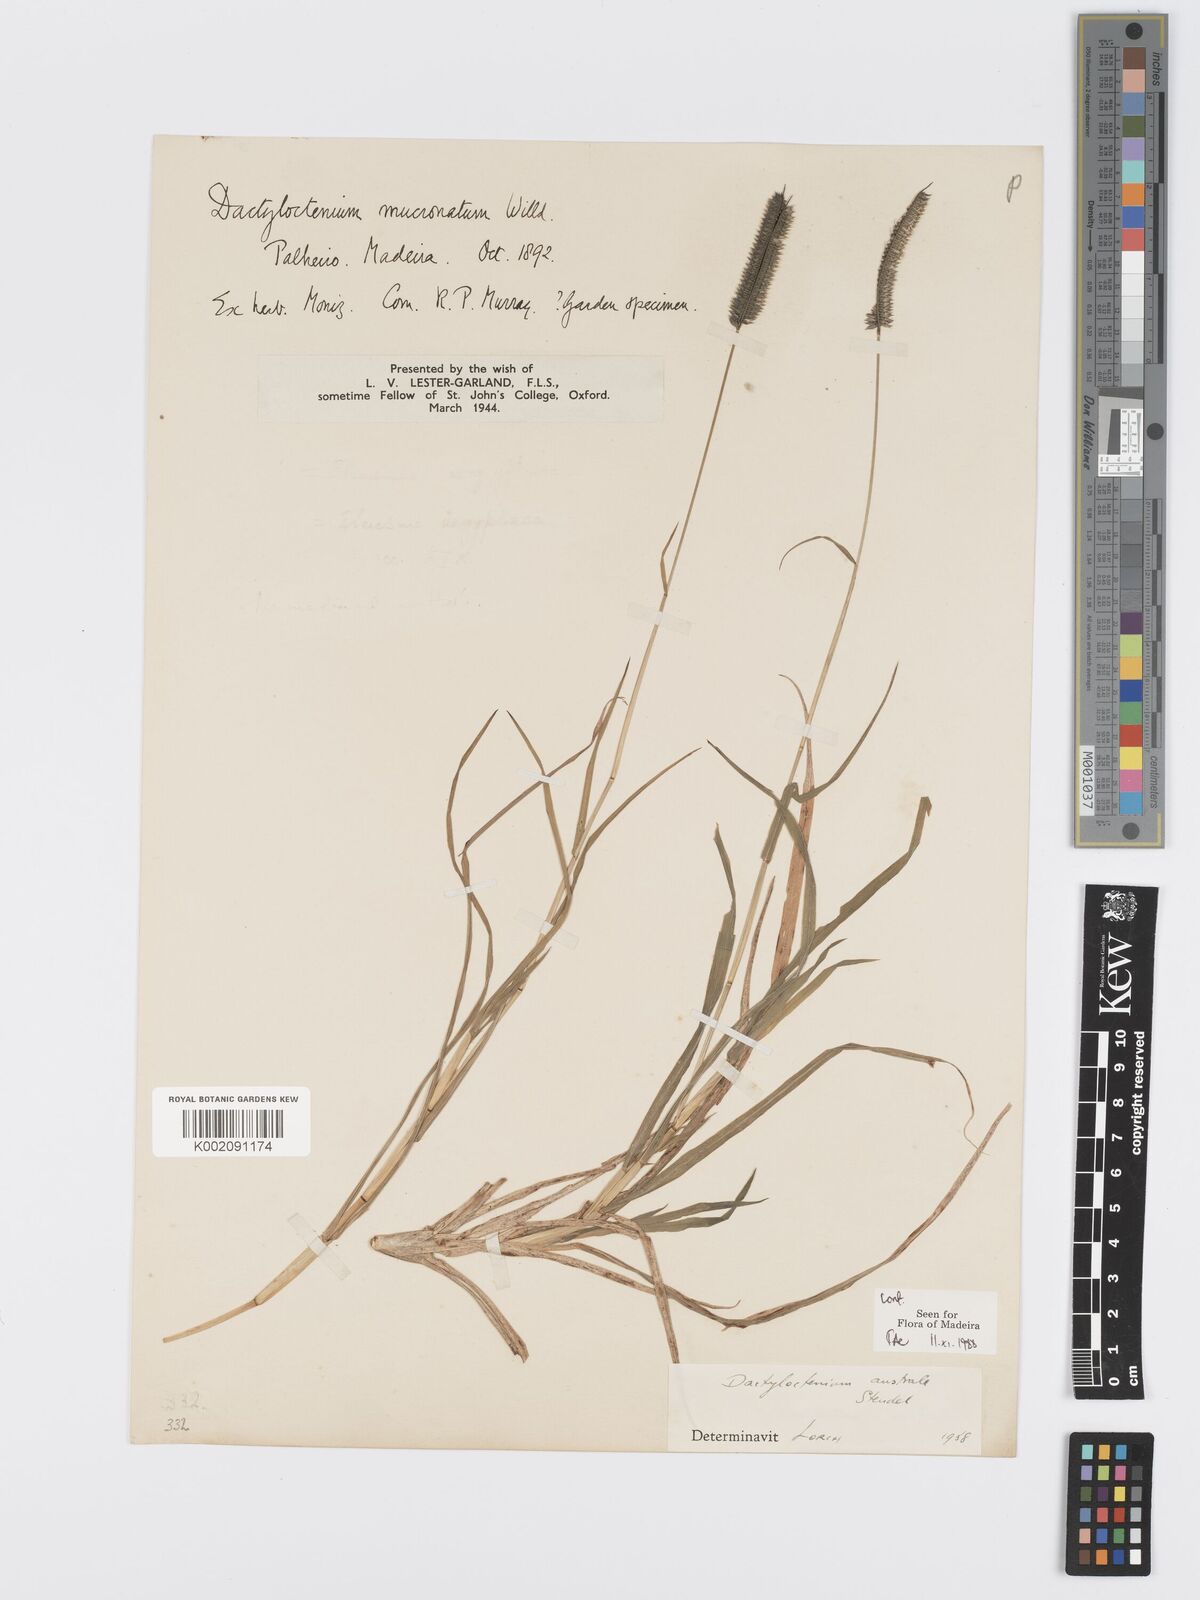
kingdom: Plantae
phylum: Tracheophyta
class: Liliopsida
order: Poales
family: Poaceae
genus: Dactyloctenium
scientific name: Dactyloctenium australe
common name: Durban grass
